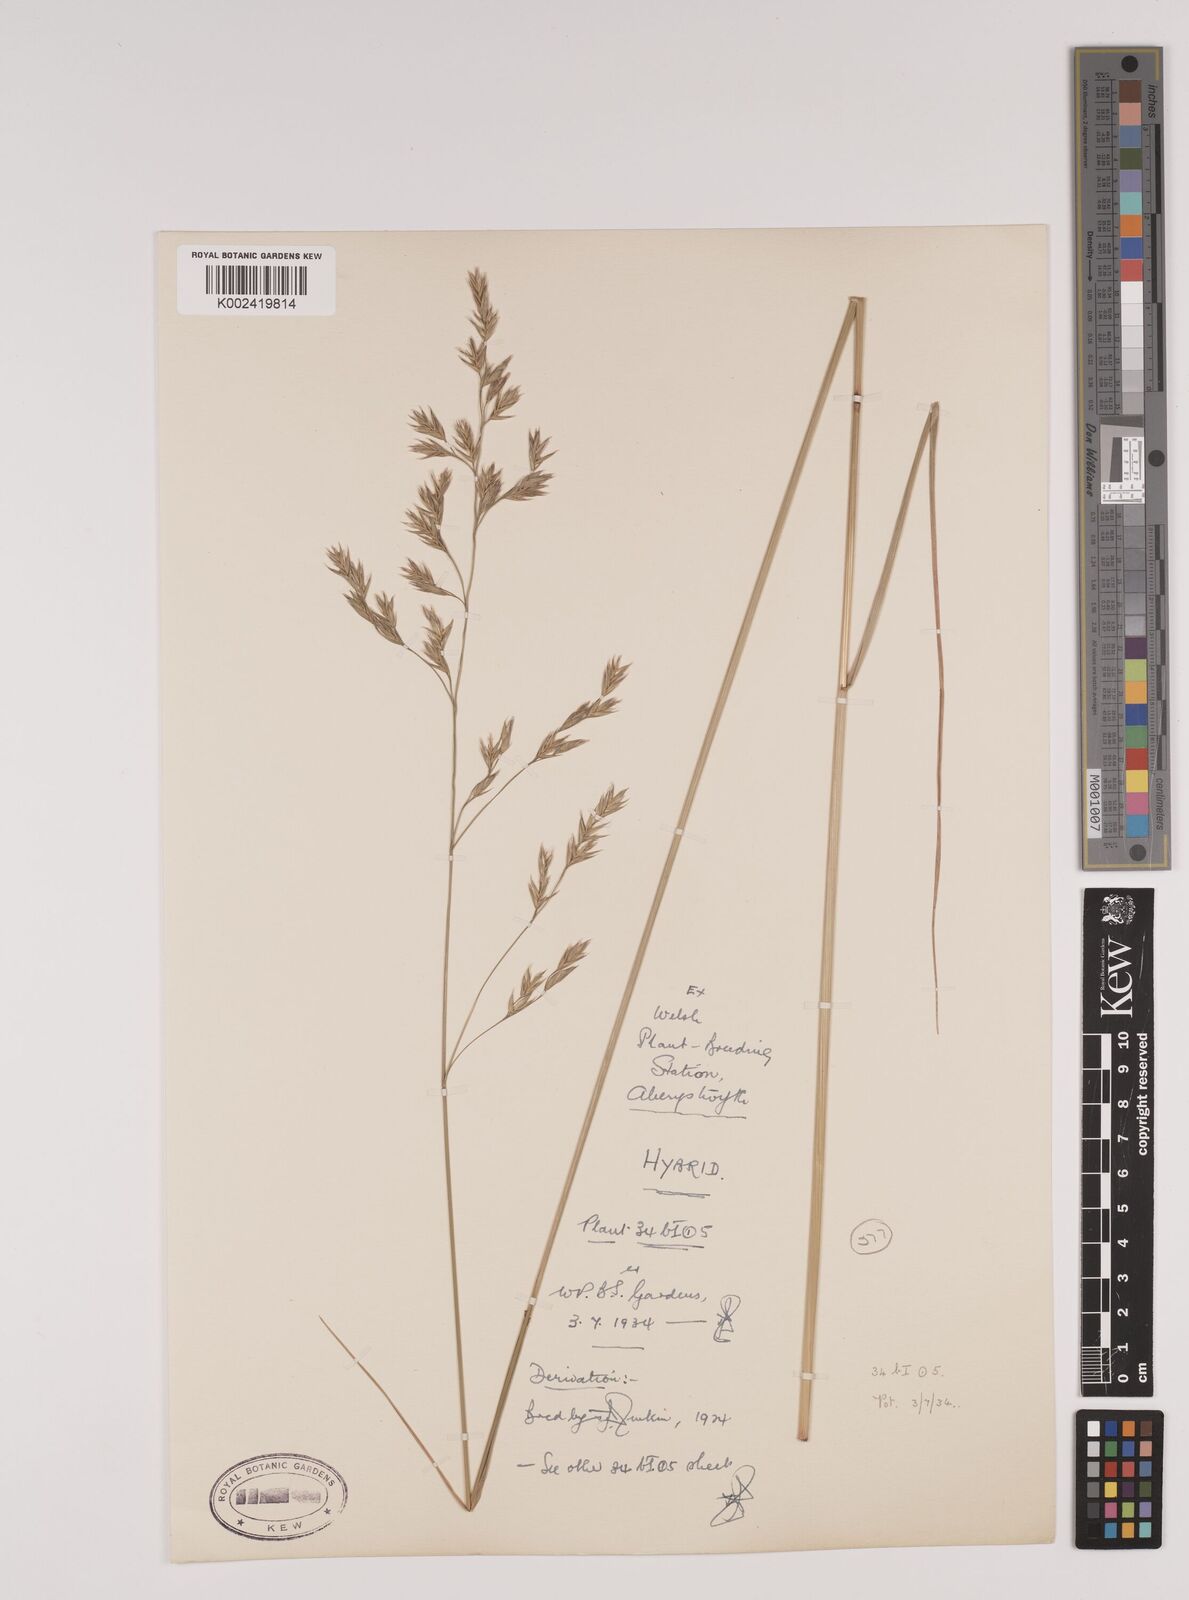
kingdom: Plantae
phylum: Tracheophyta
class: Liliopsida
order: Poales
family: Poaceae
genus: Festuca
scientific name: Festuca rubra
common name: Red fescue
